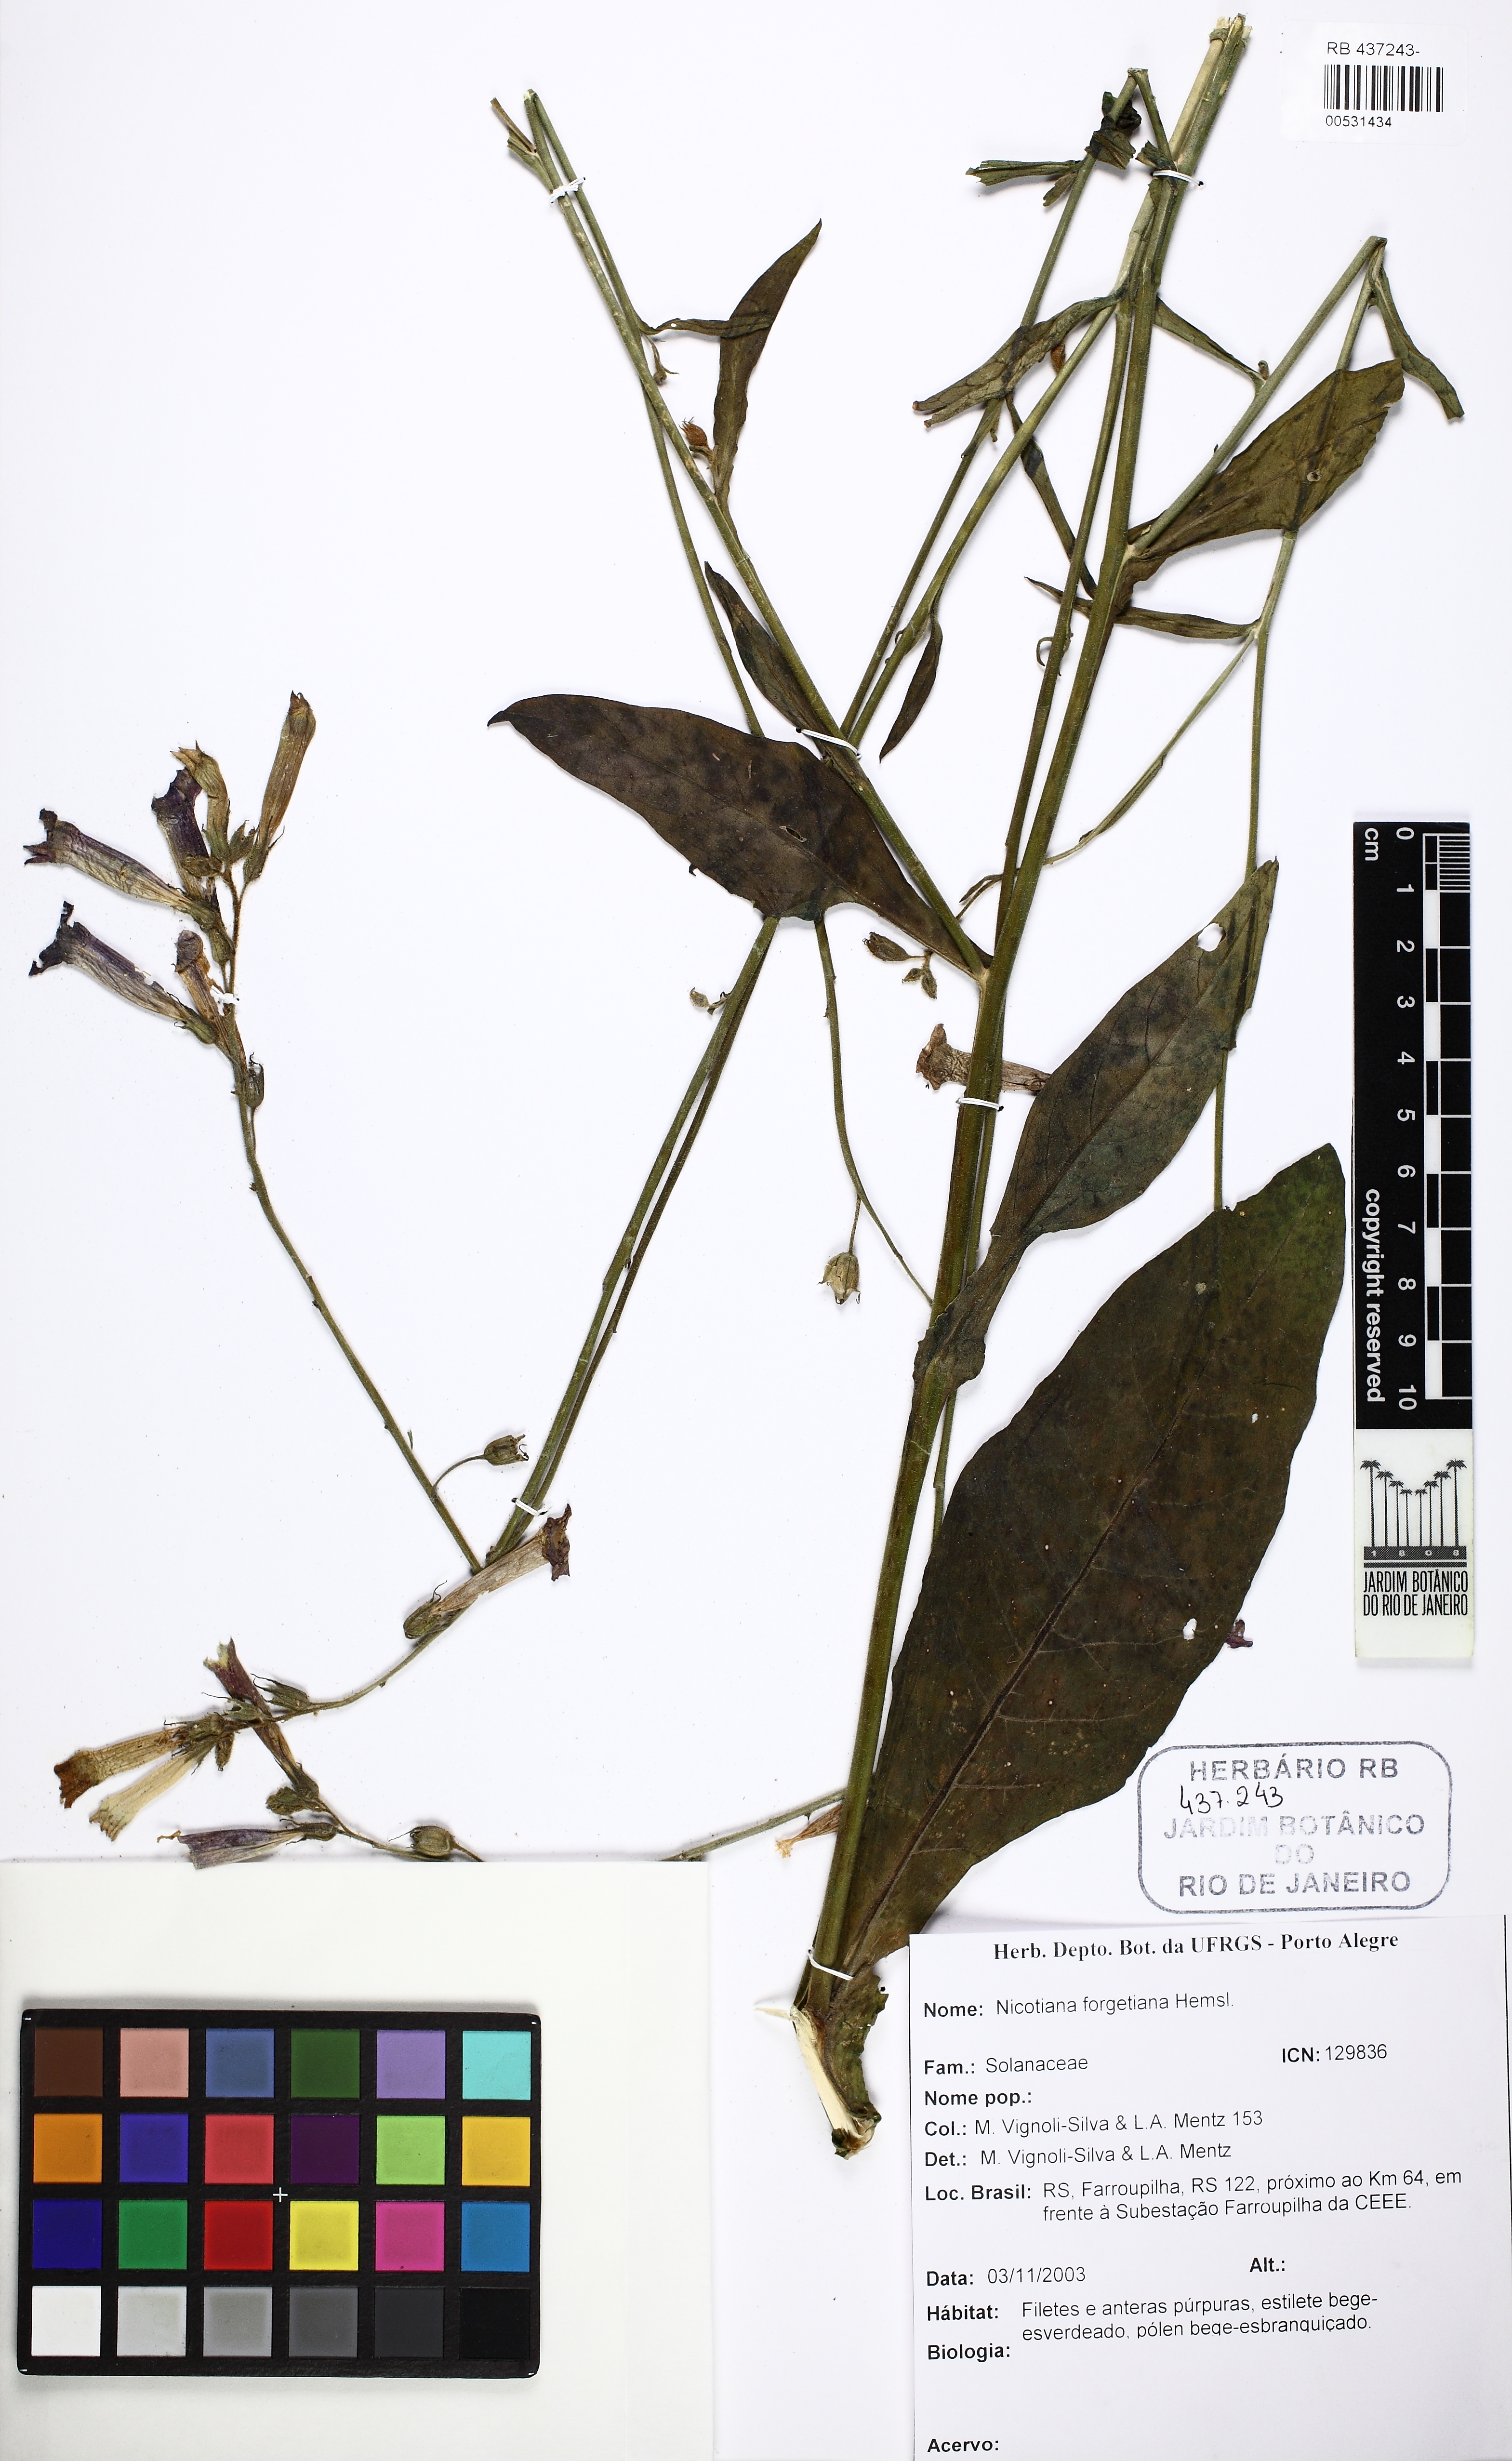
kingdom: Plantae
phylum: Tracheophyta
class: Magnoliopsida
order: Solanales
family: Solanaceae
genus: Nicotiana
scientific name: Nicotiana forgetiana
